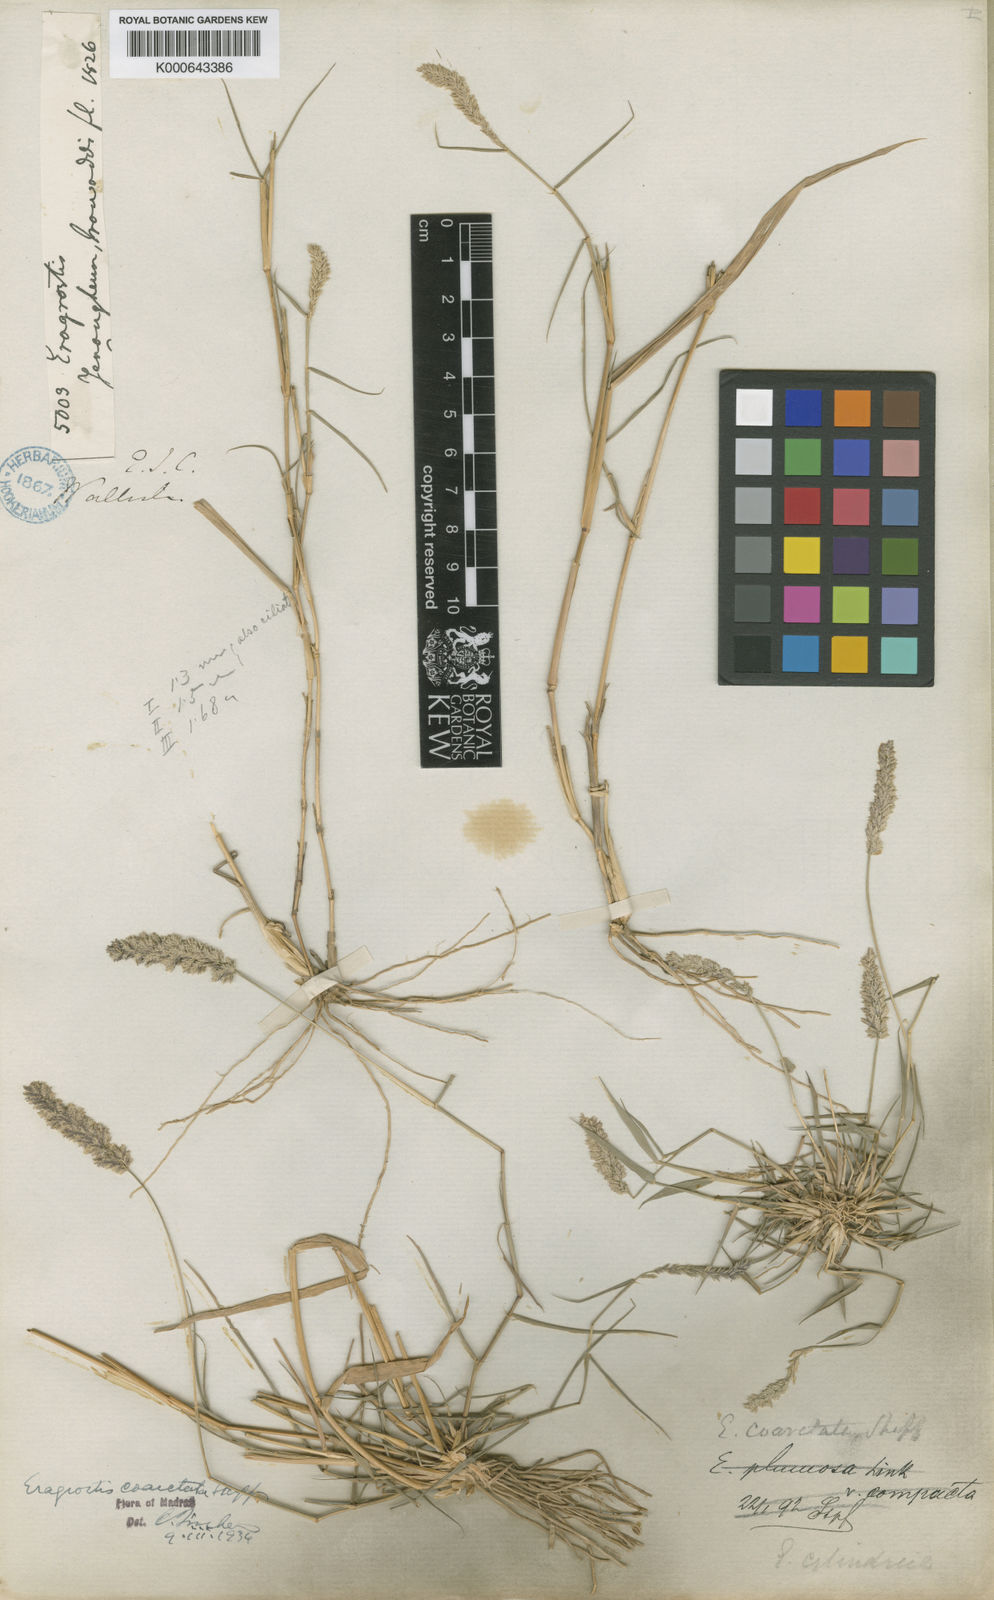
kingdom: Plantae
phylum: Tracheophyta
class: Liliopsida
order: Poales
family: Poaceae
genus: Eragrostis
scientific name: Eragrostis coarctata
